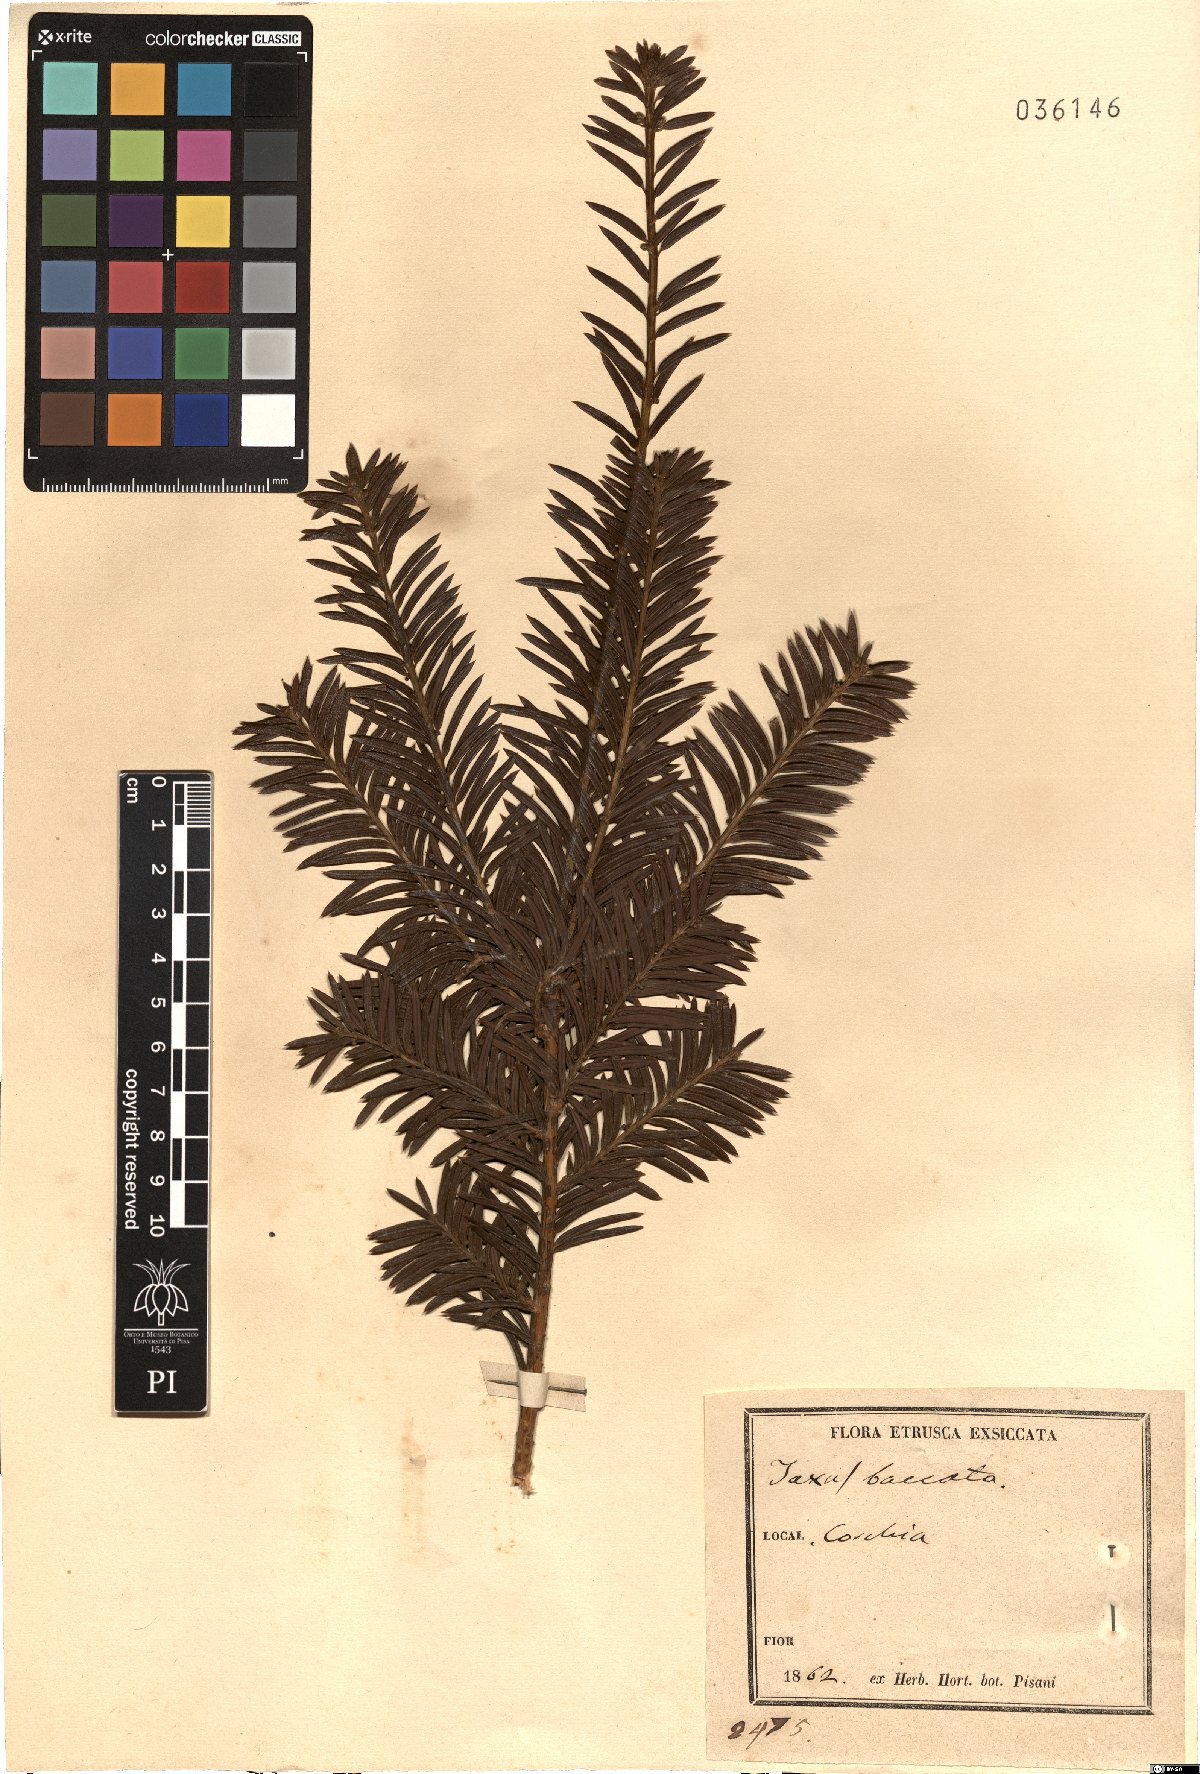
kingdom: Plantae
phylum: Tracheophyta
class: Pinopsida
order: Pinales
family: Taxaceae
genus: Taxus
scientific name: Taxus baccata
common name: Yew
